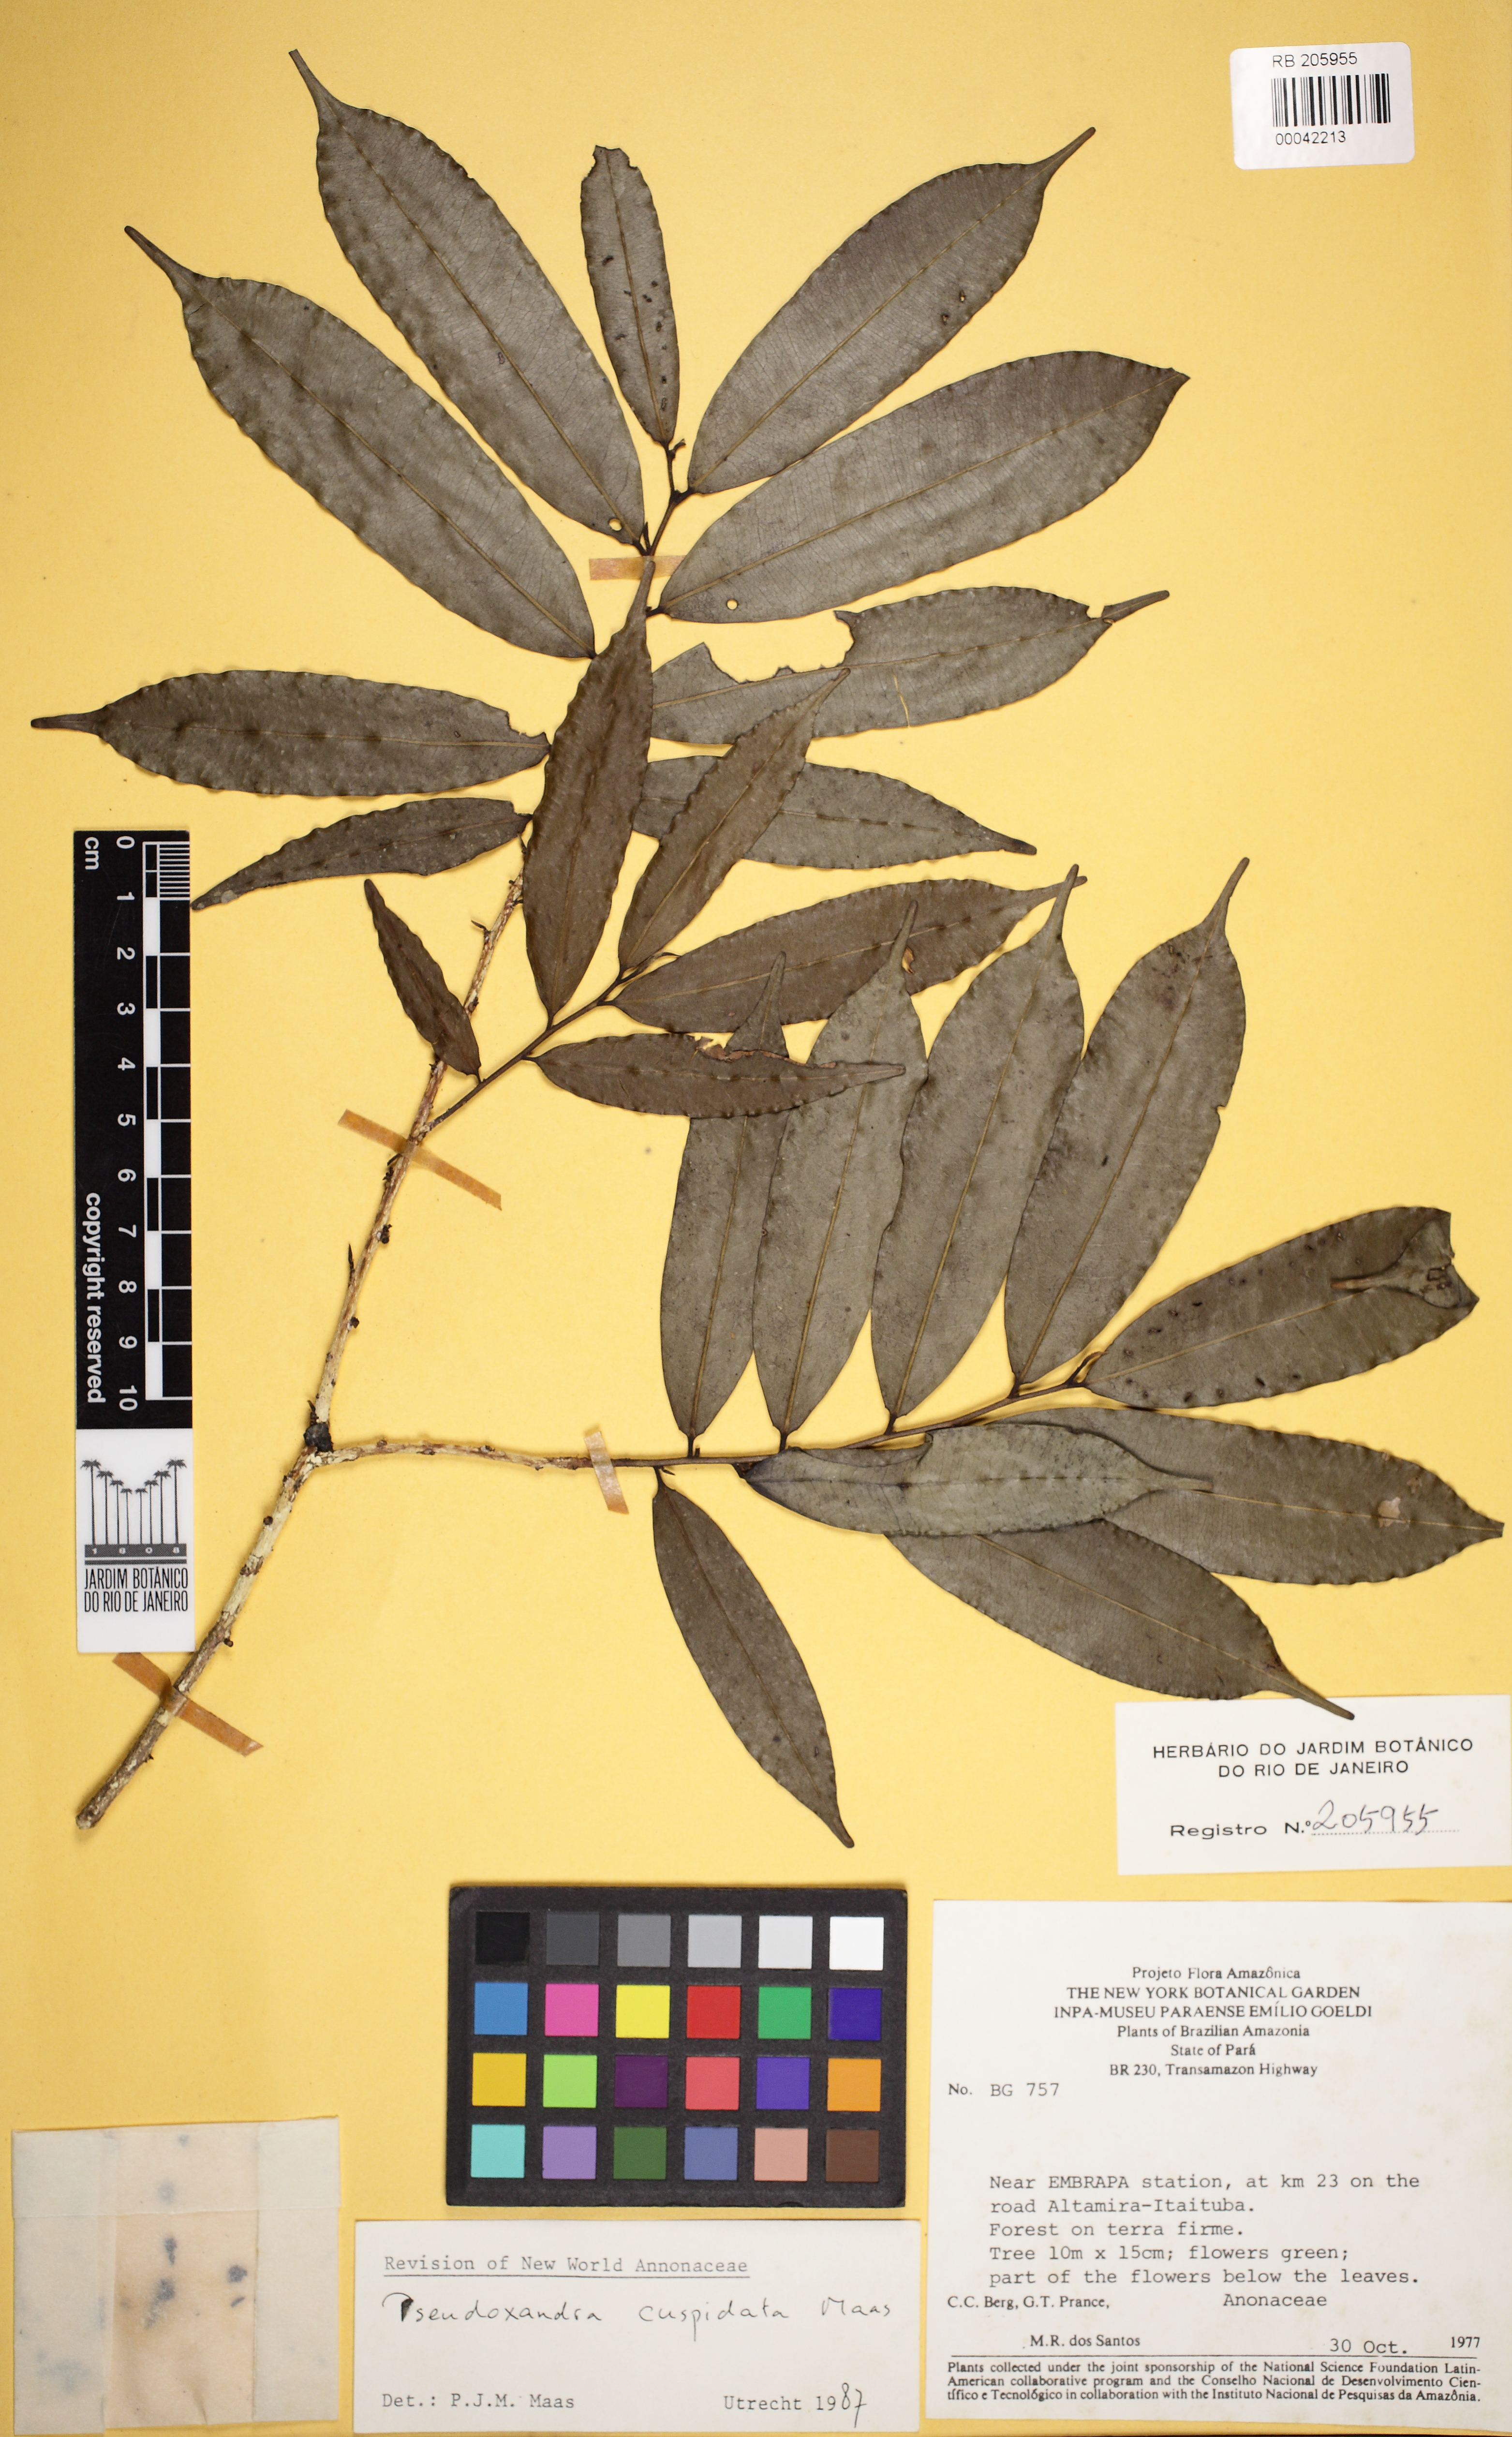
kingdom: Plantae
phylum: Tracheophyta
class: Magnoliopsida
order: Magnoliales
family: Annonaceae
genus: Pseudoxandra
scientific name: Pseudoxandra cuspidata
